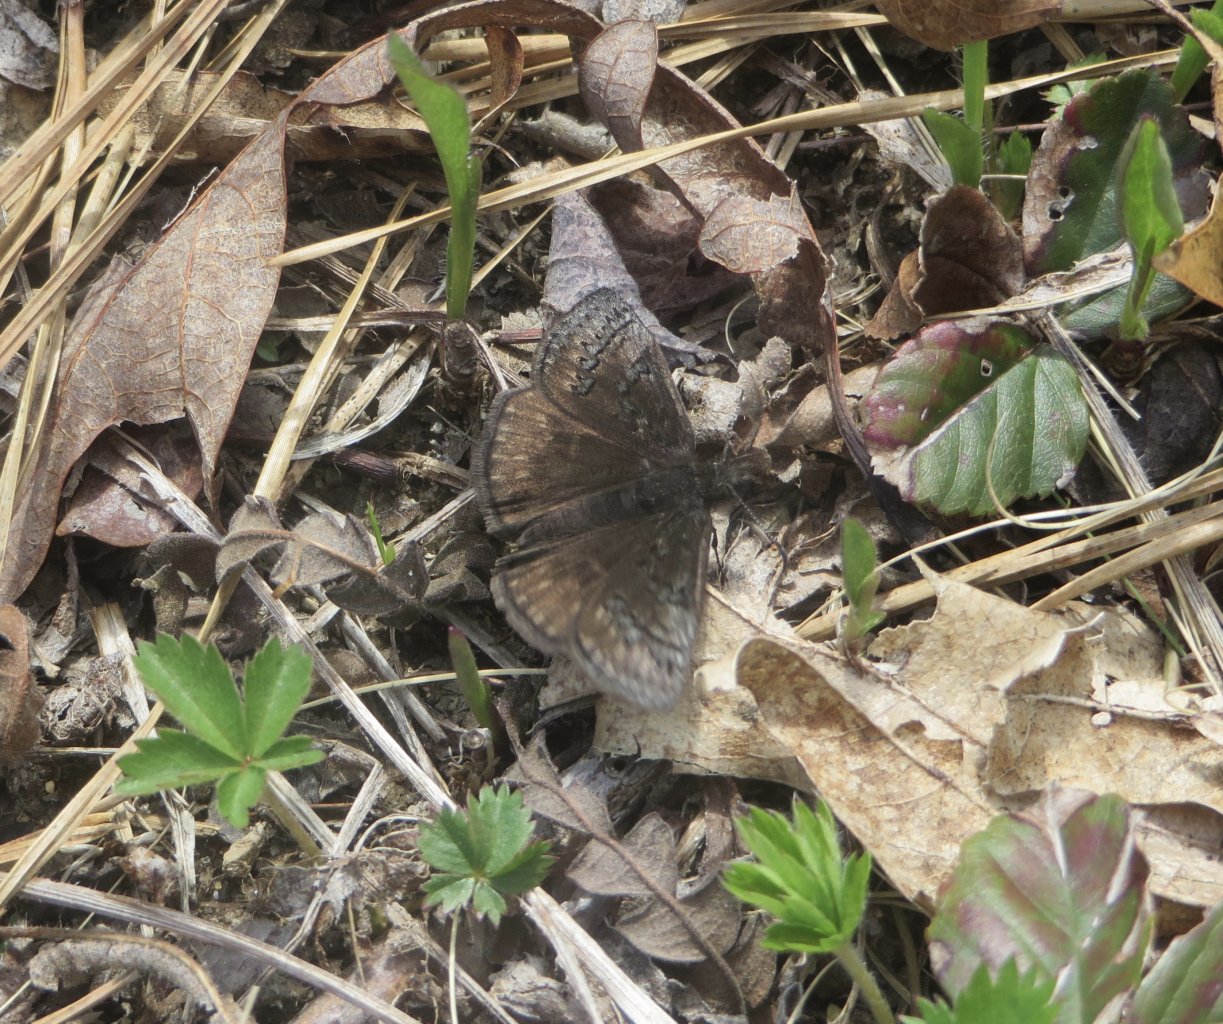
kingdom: Animalia
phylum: Arthropoda
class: Insecta
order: Lepidoptera
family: Hesperiidae
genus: Erynnis
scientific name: Erynnis brizo
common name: Sleepy Duskywing
